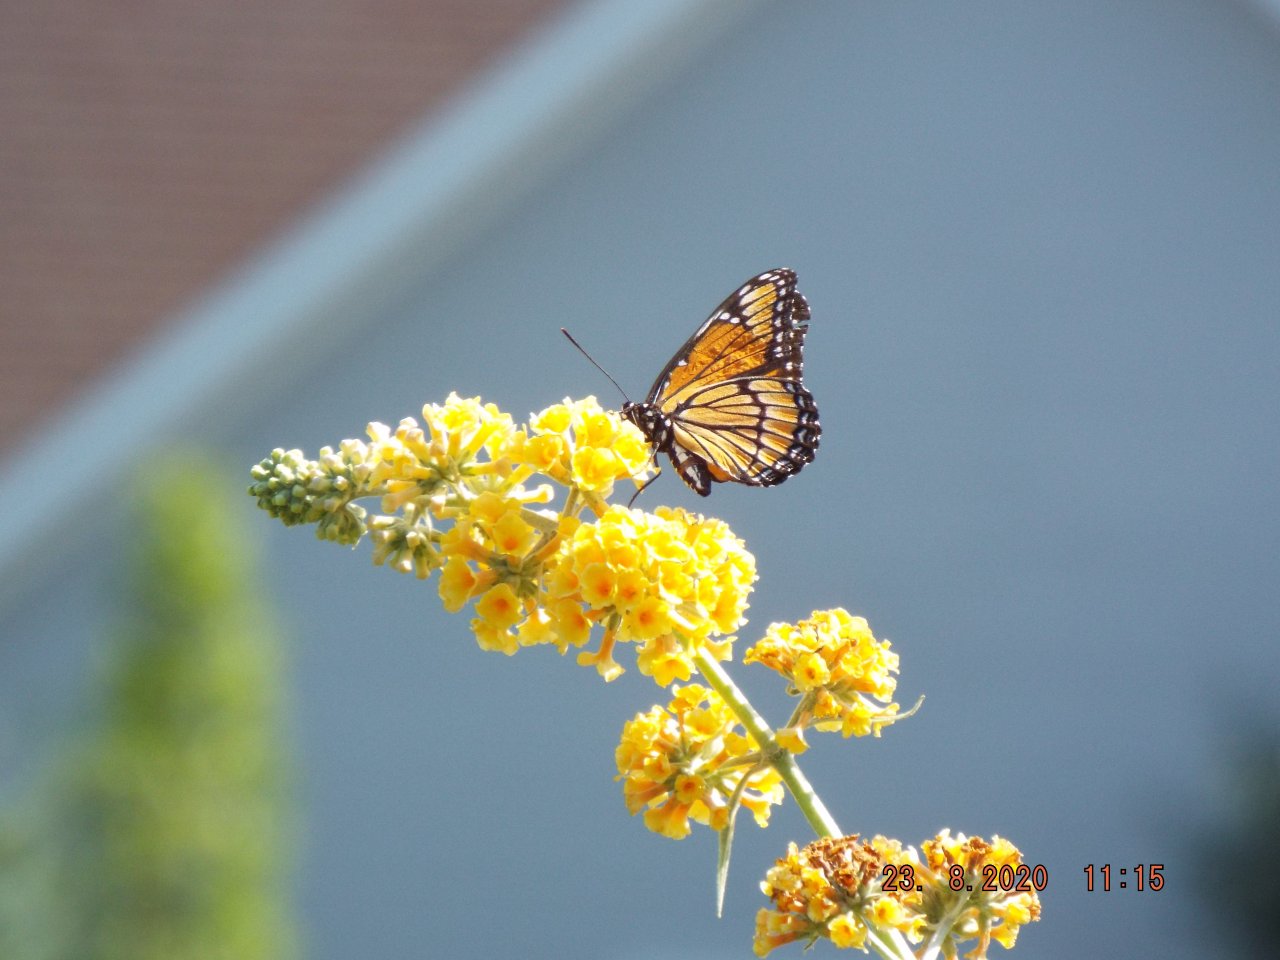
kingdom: Animalia
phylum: Arthropoda
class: Insecta
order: Lepidoptera
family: Nymphalidae
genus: Limenitis
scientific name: Limenitis archippus
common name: Viceroy
